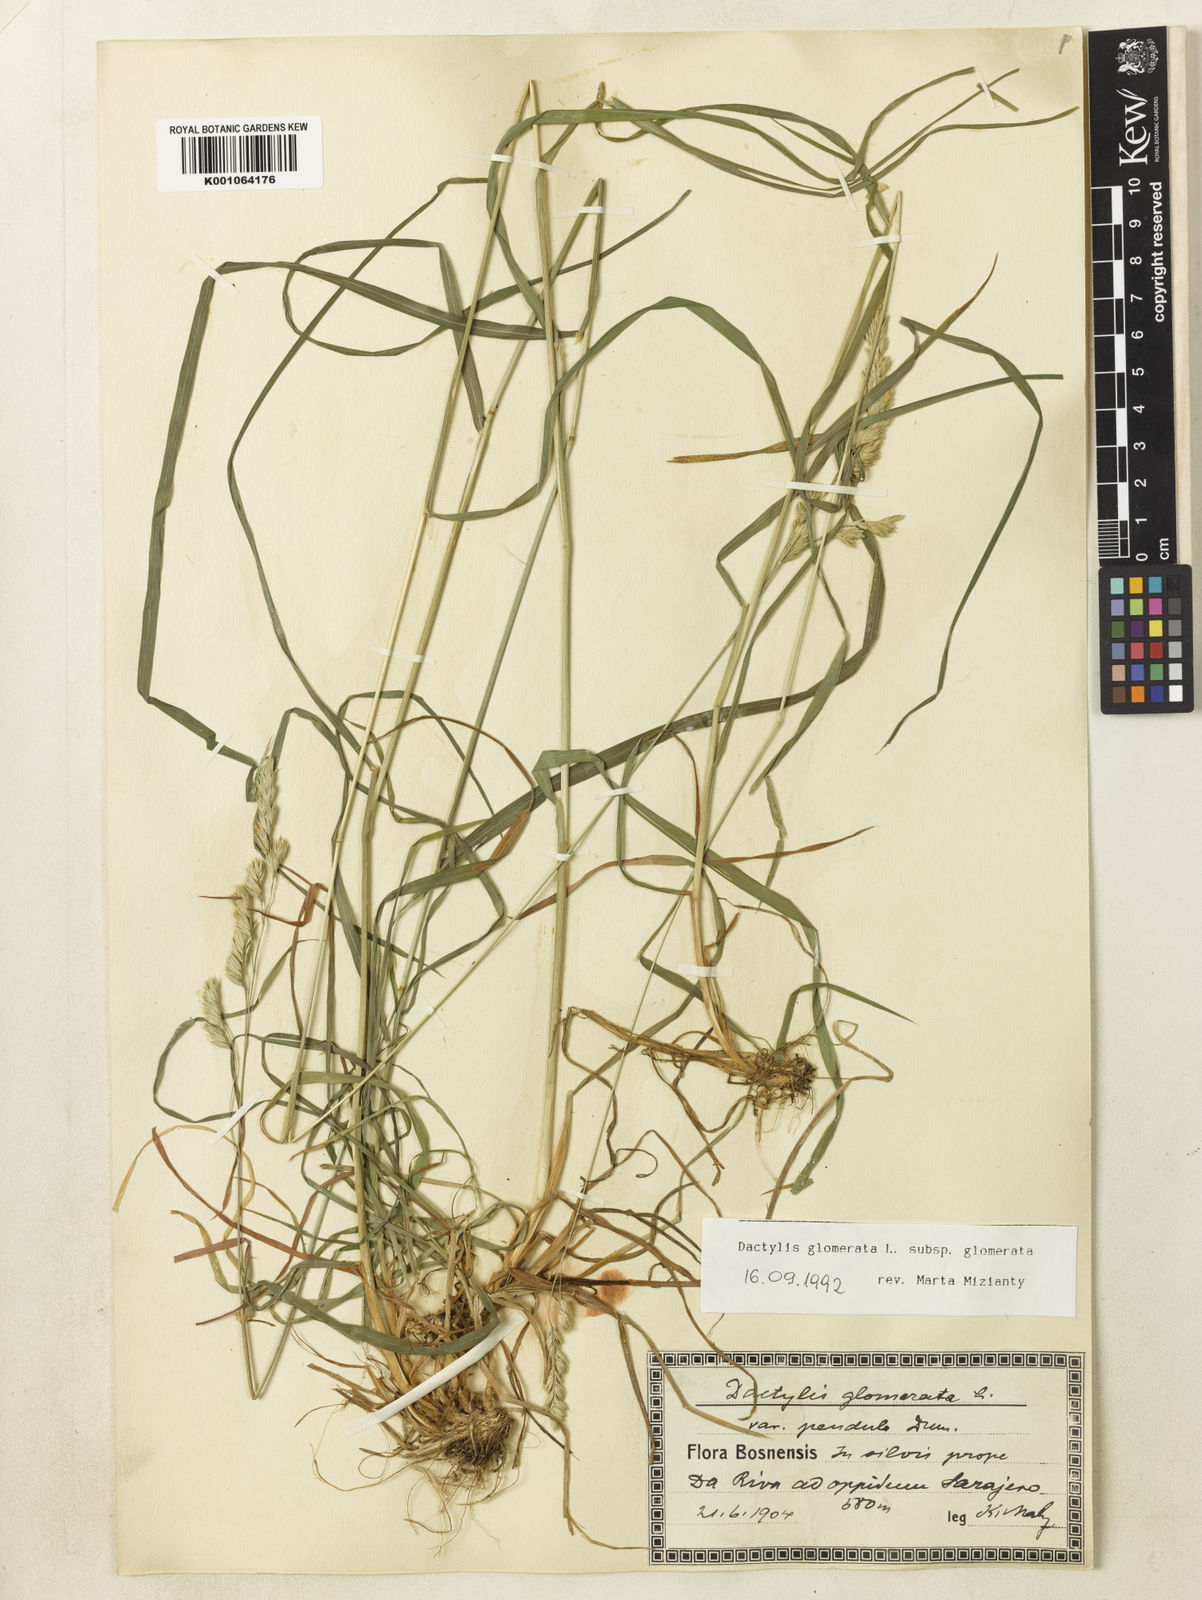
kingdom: Plantae
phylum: Tracheophyta
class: Liliopsida
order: Poales
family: Poaceae
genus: Dactylis
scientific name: Dactylis glomerata
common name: Orchardgrass
